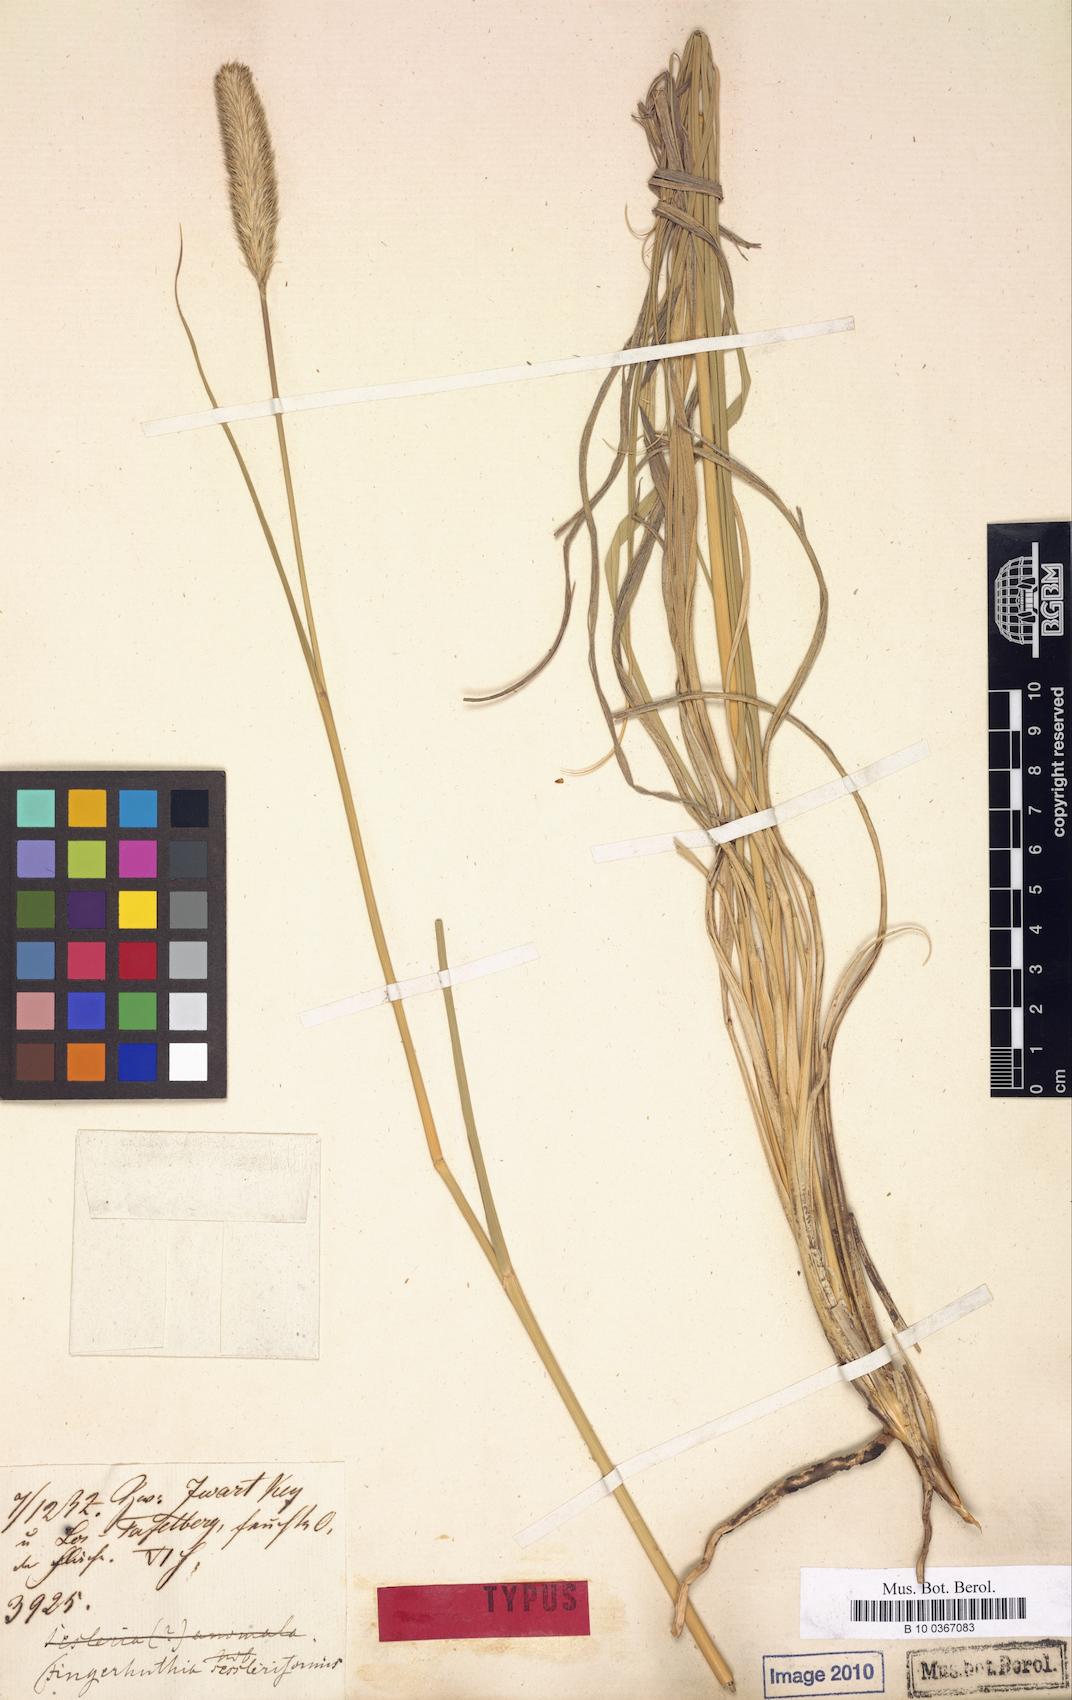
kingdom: Plantae
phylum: Tracheophyta
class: Liliopsida
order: Poales
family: Poaceae
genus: Fingerhuthia
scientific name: Fingerhuthia sesleriiformis
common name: Thimble grass
